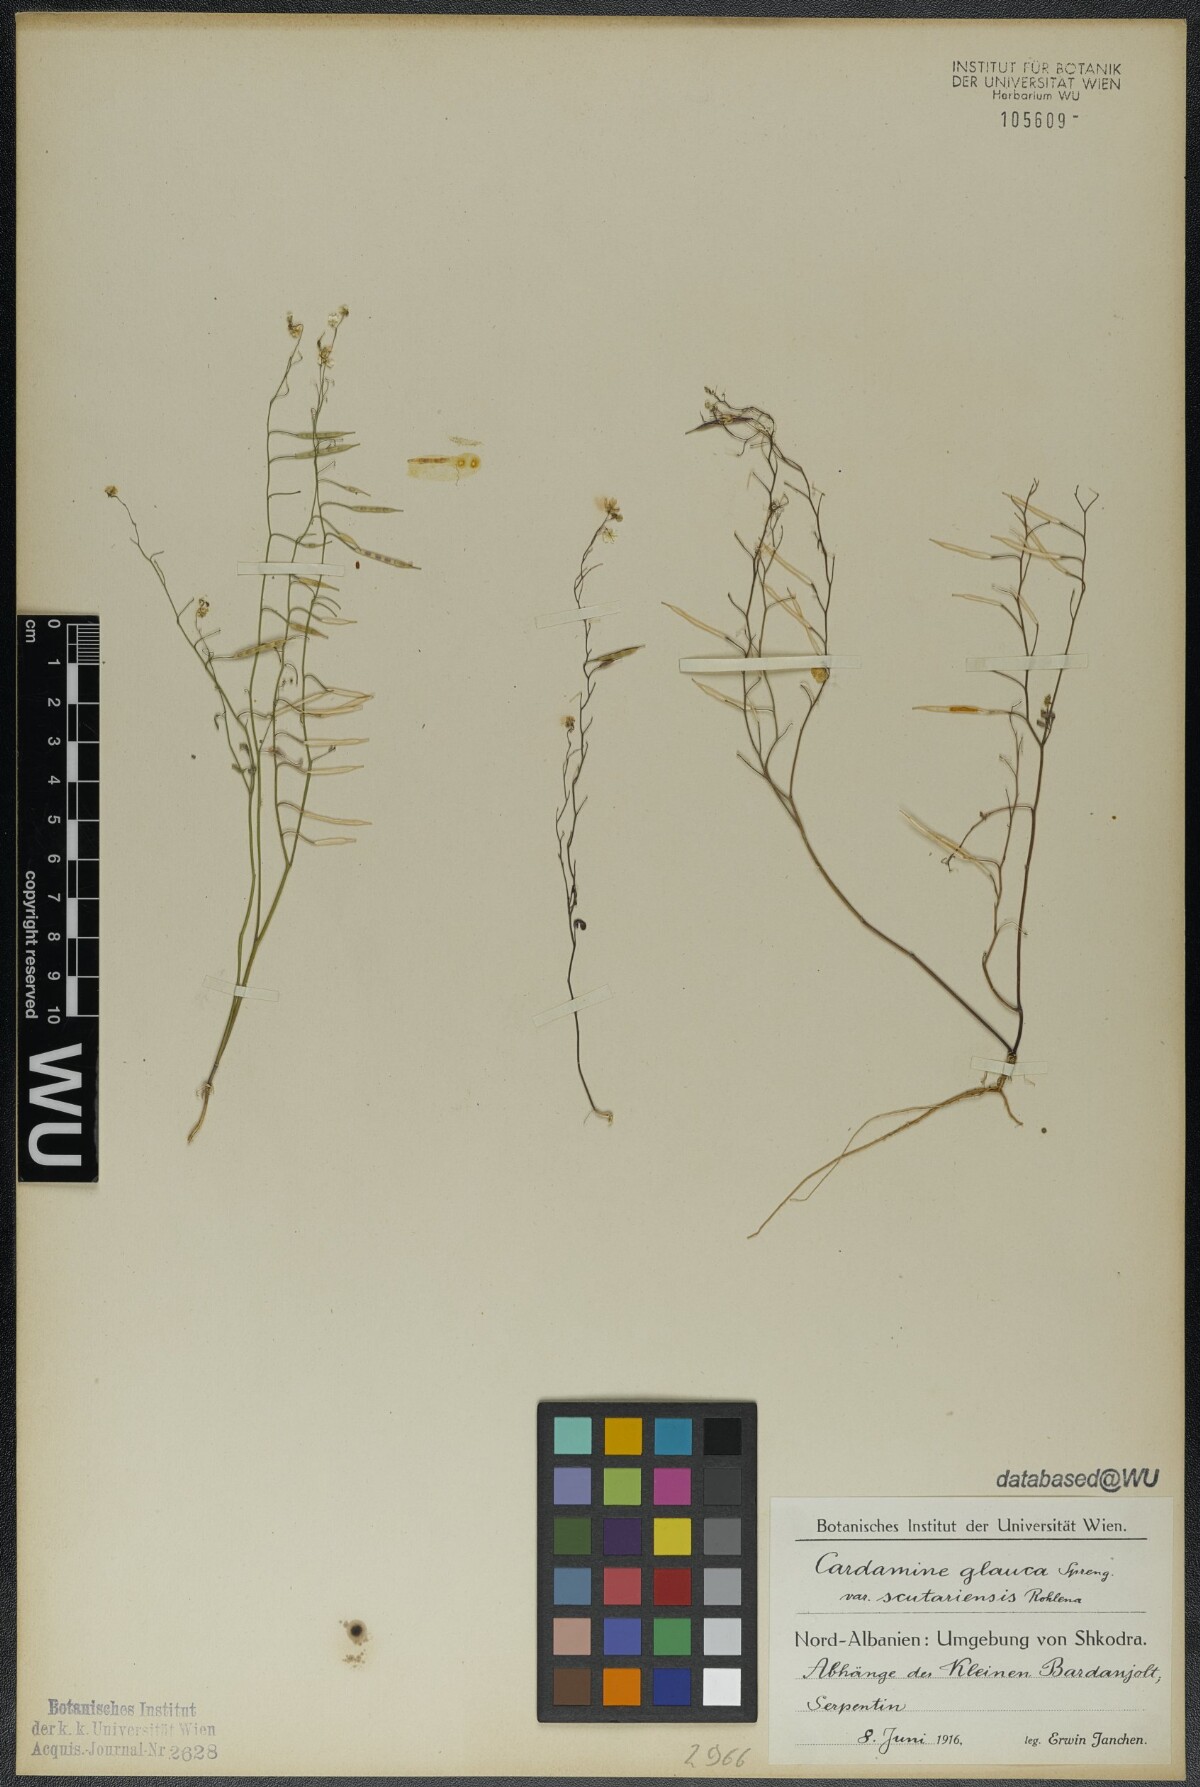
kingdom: Plantae
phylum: Tracheophyta
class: Magnoliopsida
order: Brassicales
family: Brassicaceae
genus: Cardamine
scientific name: Cardamine glauca
